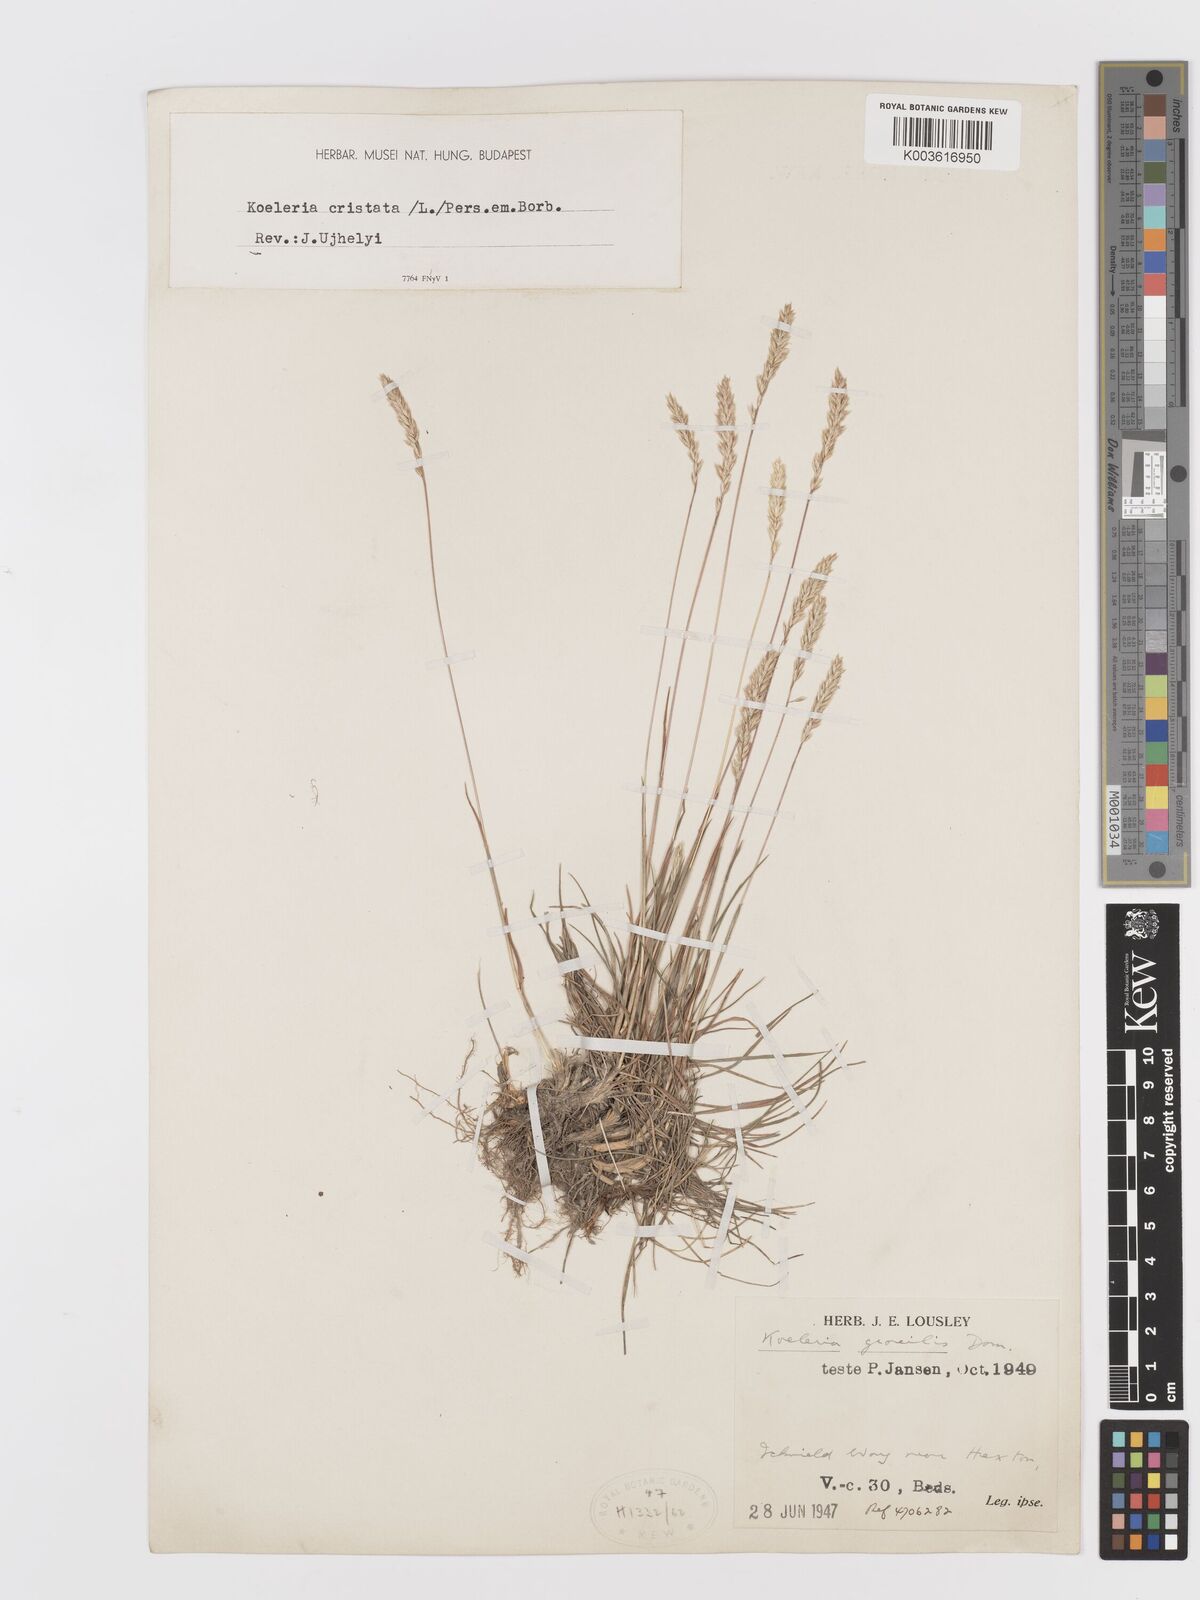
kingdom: Plantae
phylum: Tracheophyta
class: Liliopsida
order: Poales
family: Poaceae
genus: Koeleria
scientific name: Koeleria macrantha
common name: Crested hair-grass
